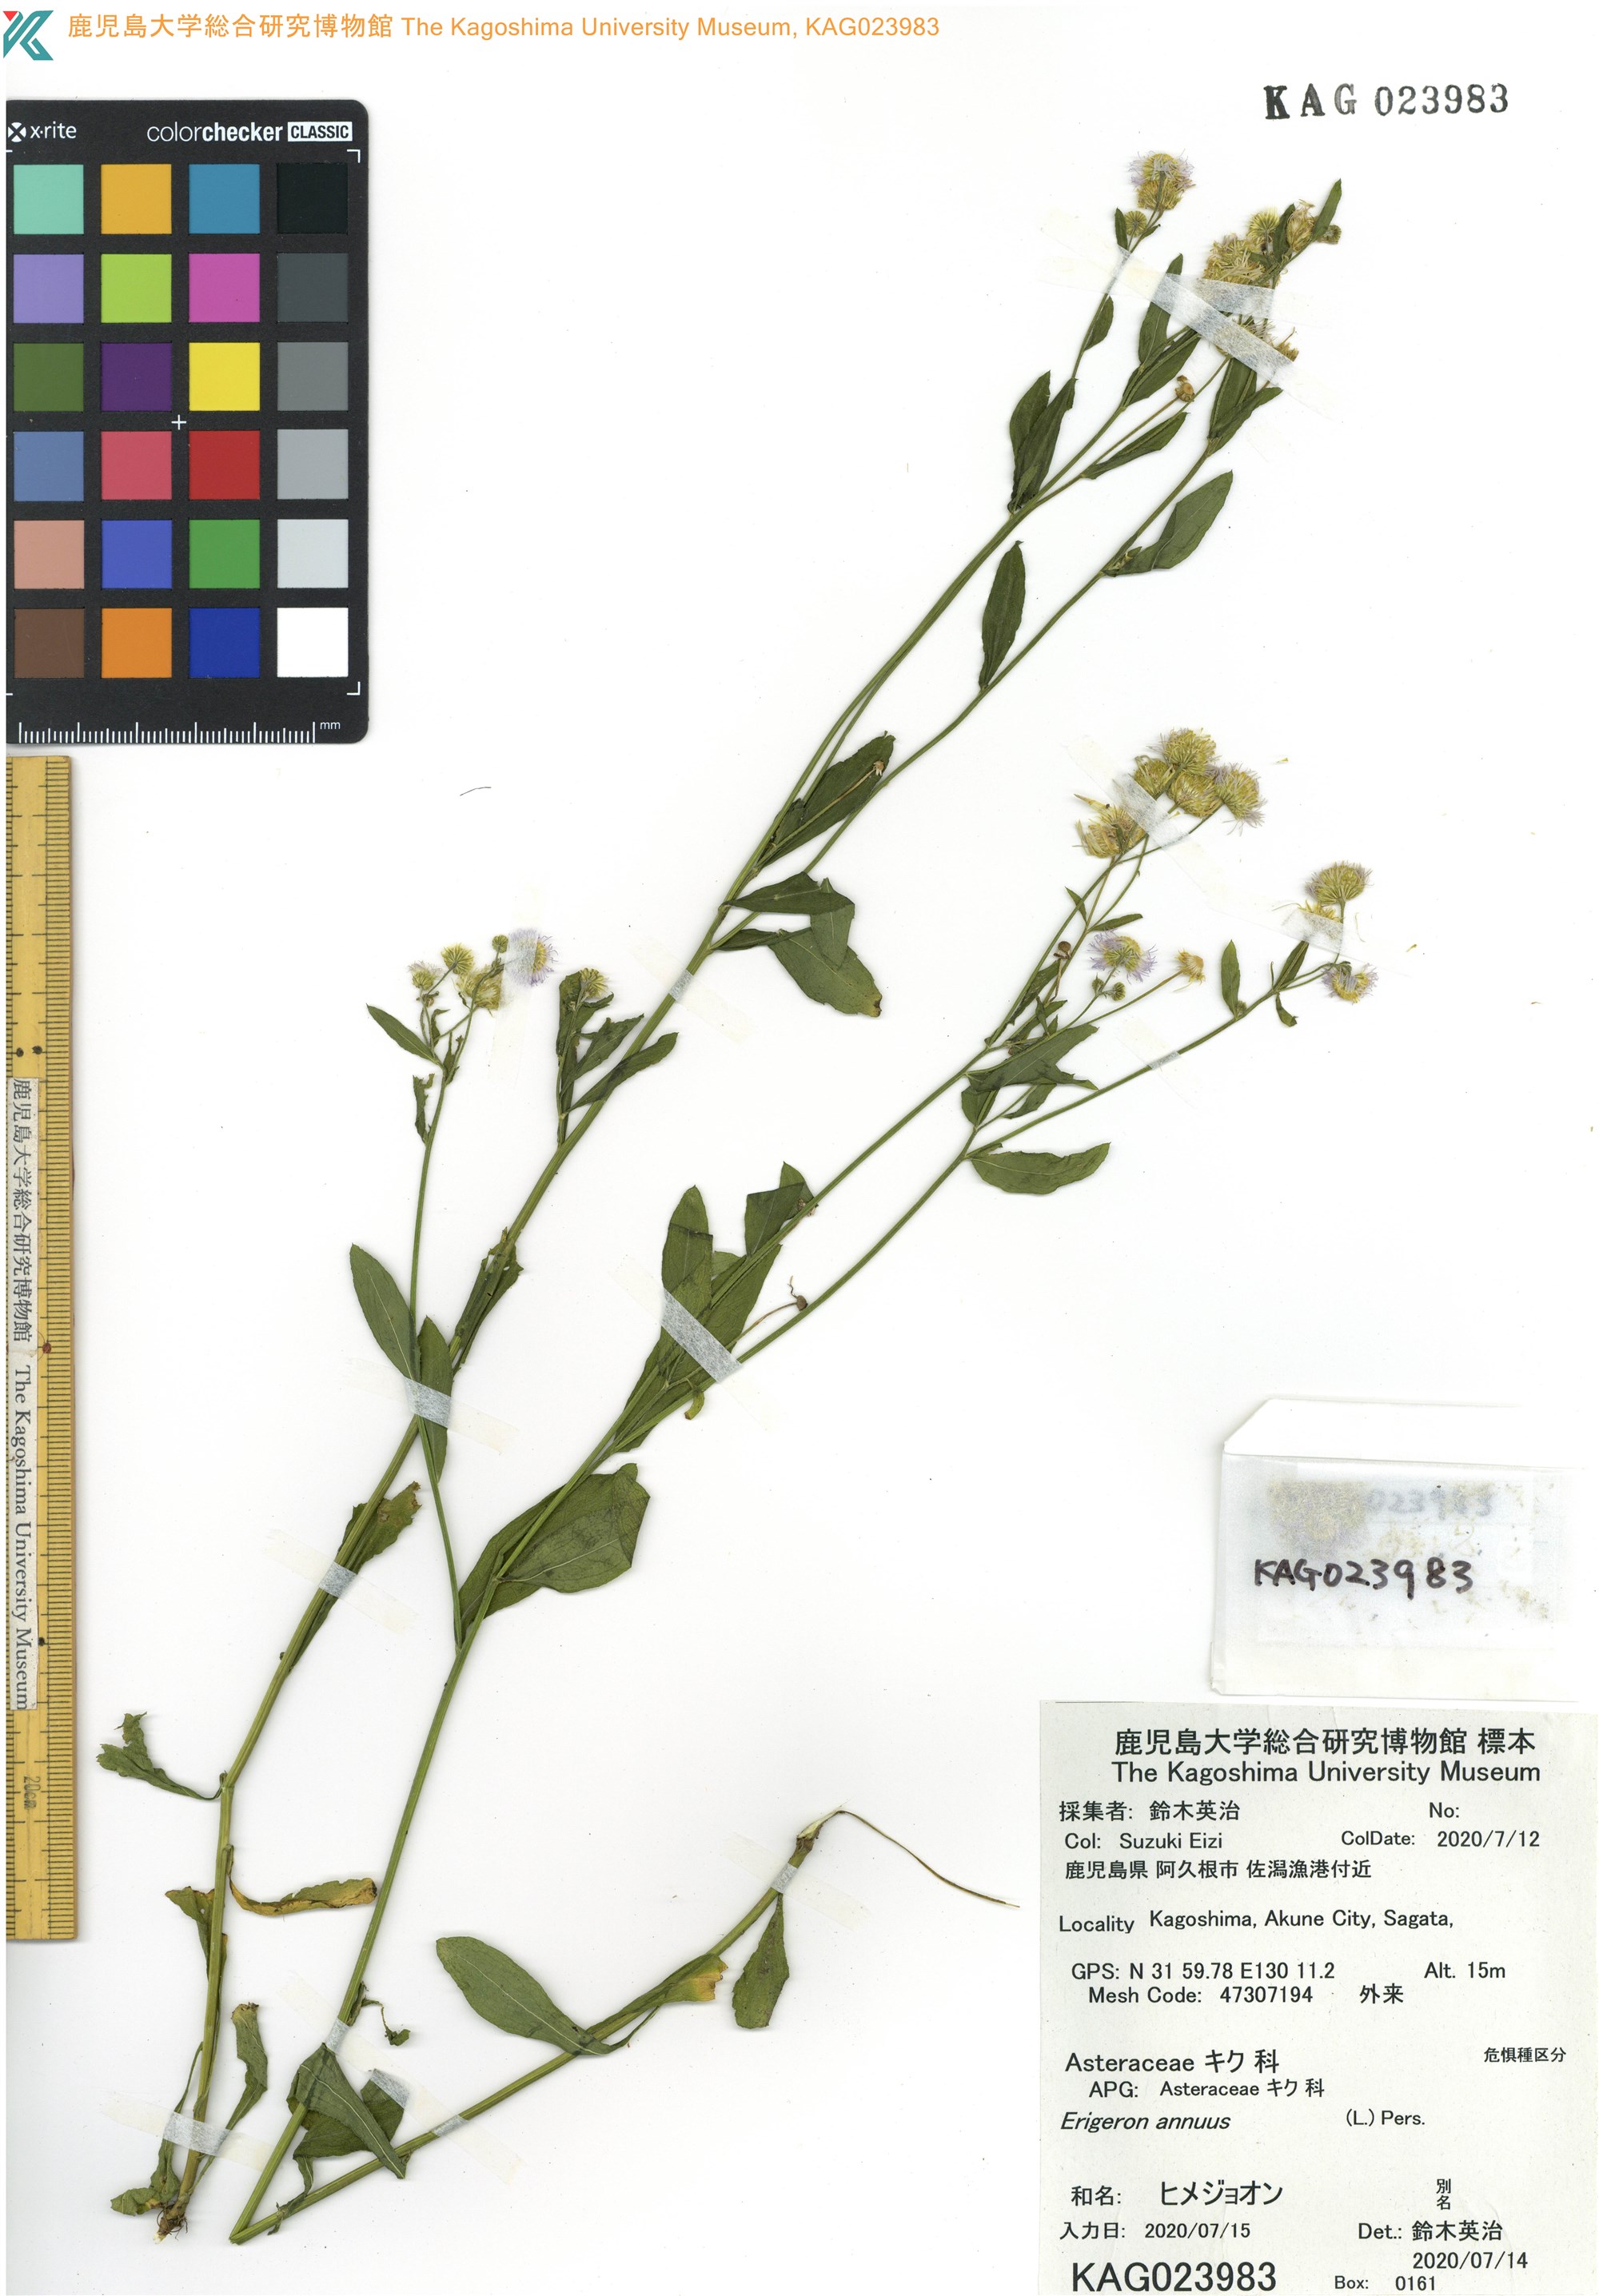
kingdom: Plantae
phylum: Tracheophyta
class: Magnoliopsida
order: Asterales
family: Asteraceae
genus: Erigeron
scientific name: Erigeron annuus
